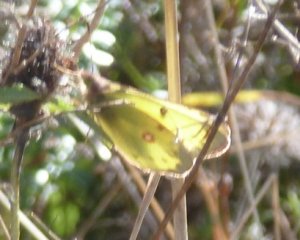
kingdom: Animalia
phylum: Arthropoda
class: Insecta
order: Lepidoptera
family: Pieridae
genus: Colias
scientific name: Colias philodice
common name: Clouded Sulphur
